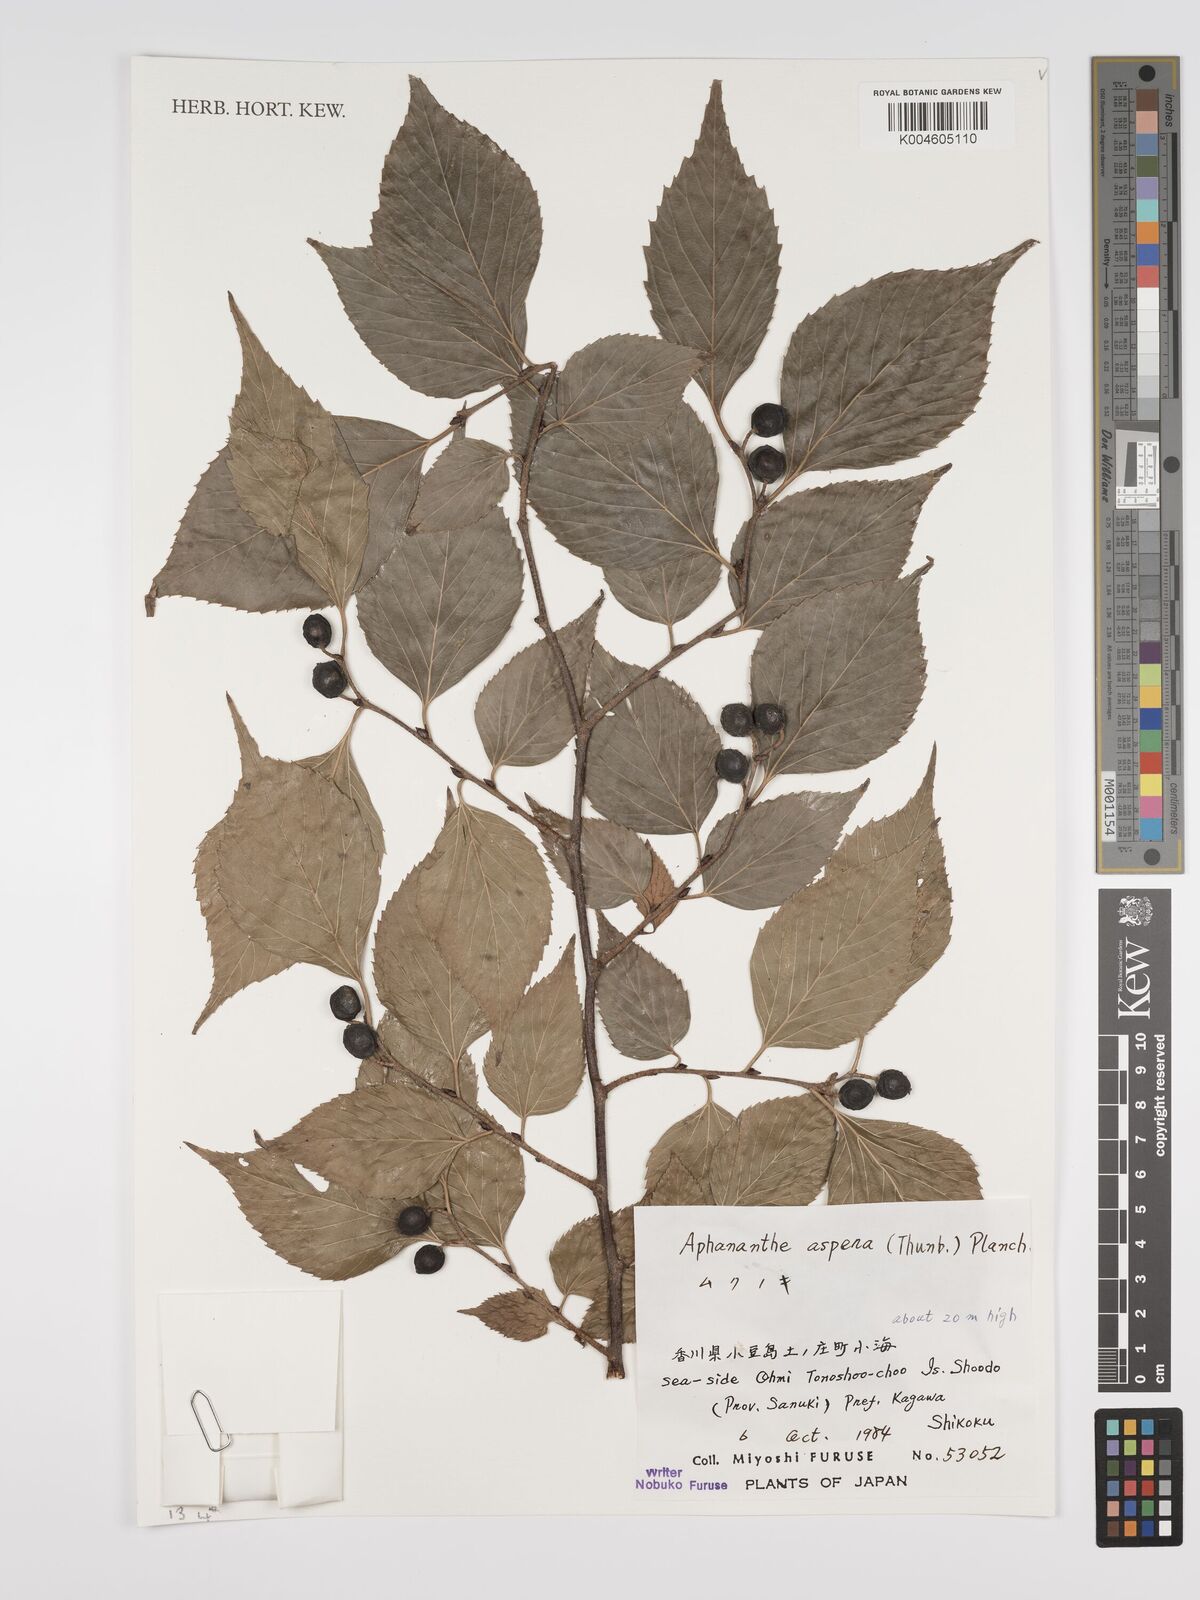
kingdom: Plantae
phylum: Tracheophyta
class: Magnoliopsida
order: Rosales
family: Cannabaceae
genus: Aphananthe
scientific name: Aphananthe aspera
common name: Mukutree
